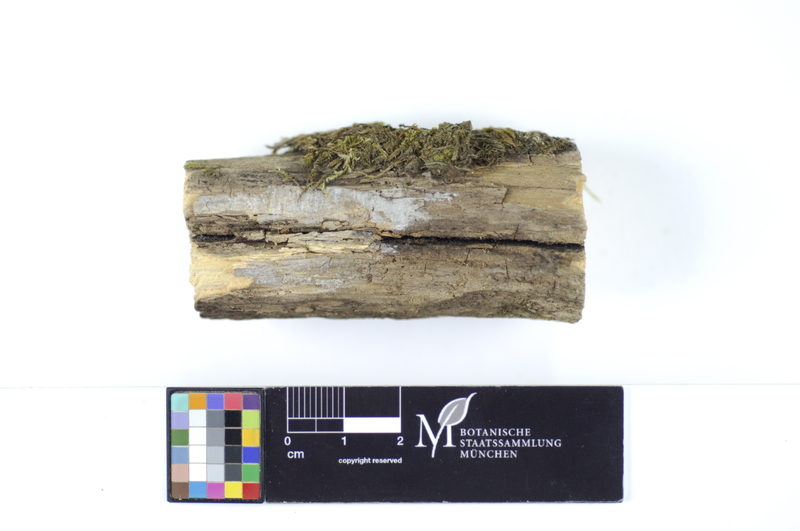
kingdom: Fungi
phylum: Basidiomycota
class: Agaricomycetes
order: Hymenochaetales
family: Hymenochaetaceae
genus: Hymenochaete
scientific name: Hymenochaete fuliginosa
